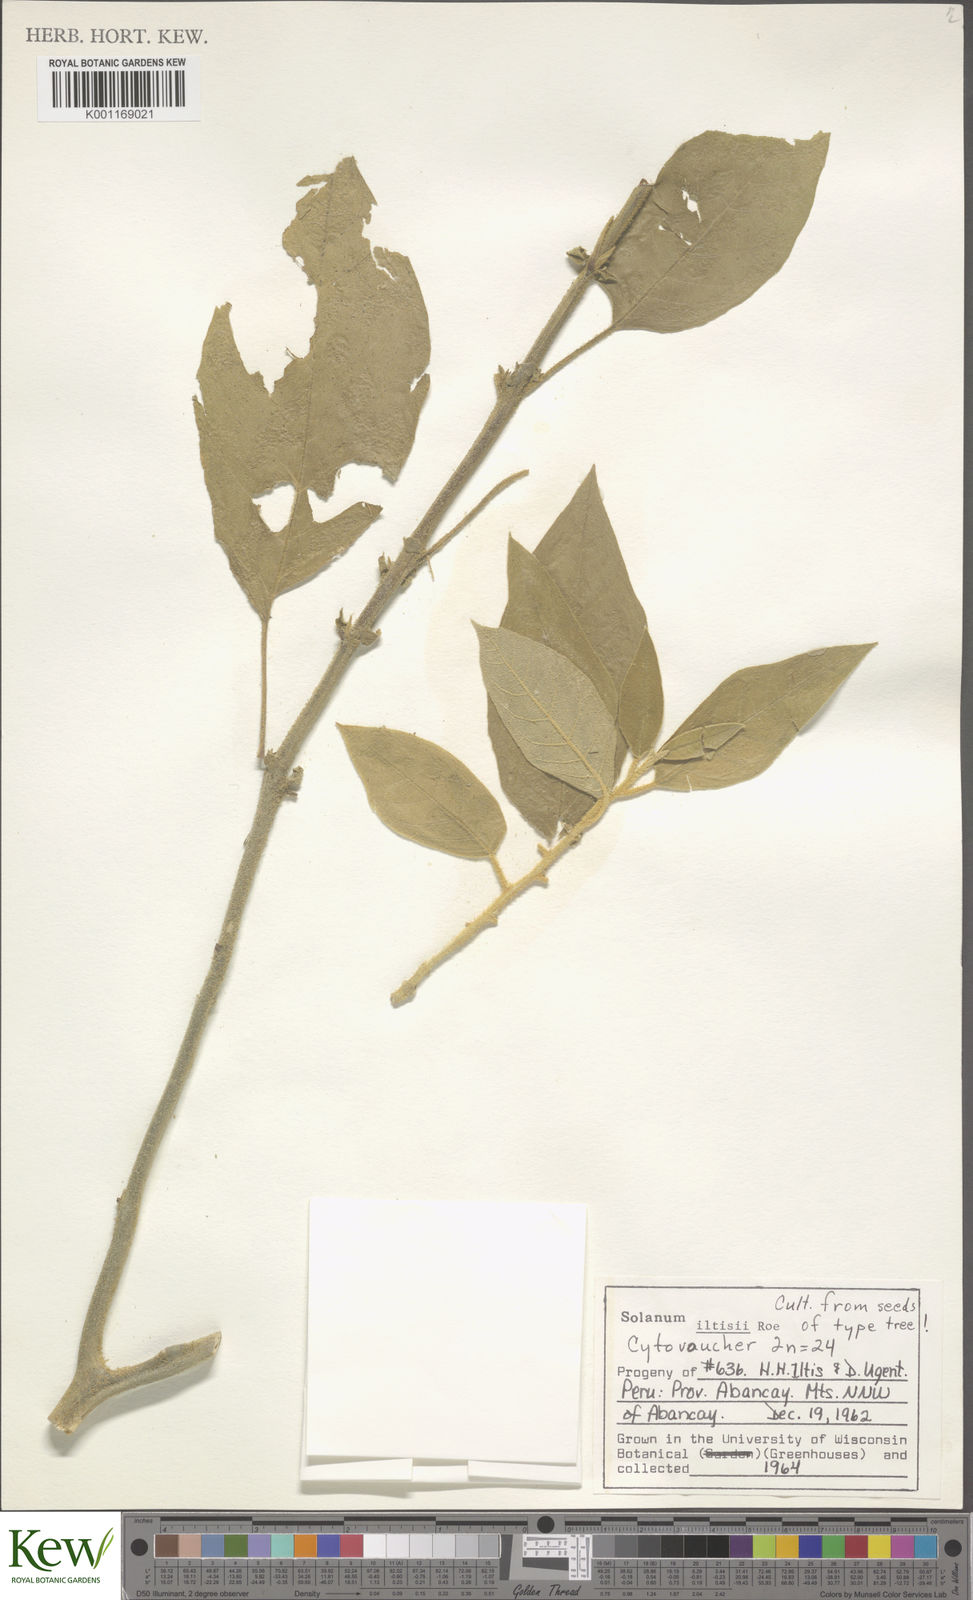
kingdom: Plantae
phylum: Tracheophyta
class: Magnoliopsida
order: Solanales
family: Solanaceae
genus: Solanum
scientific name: Solanum iltisii
